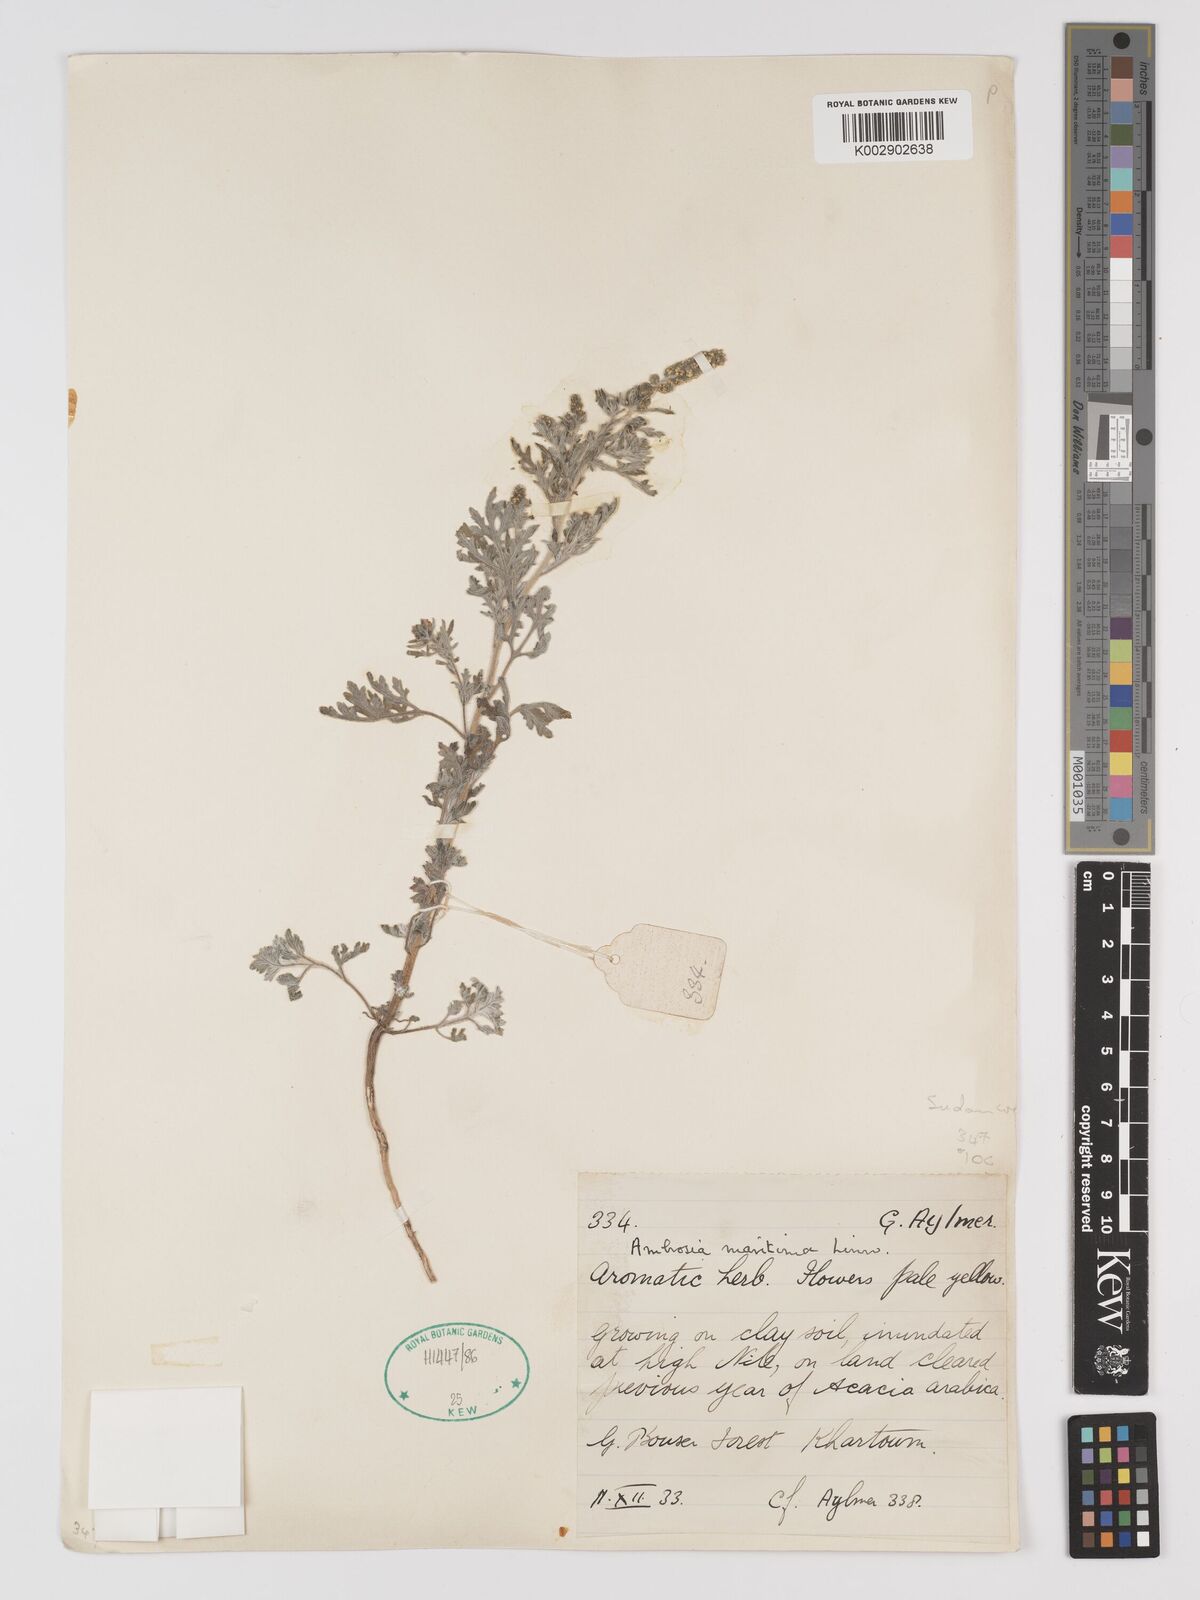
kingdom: Plantae
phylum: Tracheophyta
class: Magnoliopsida
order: Asterales
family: Asteraceae
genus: Ambrosia
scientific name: Ambrosia maritima
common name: Sea ambrosia
